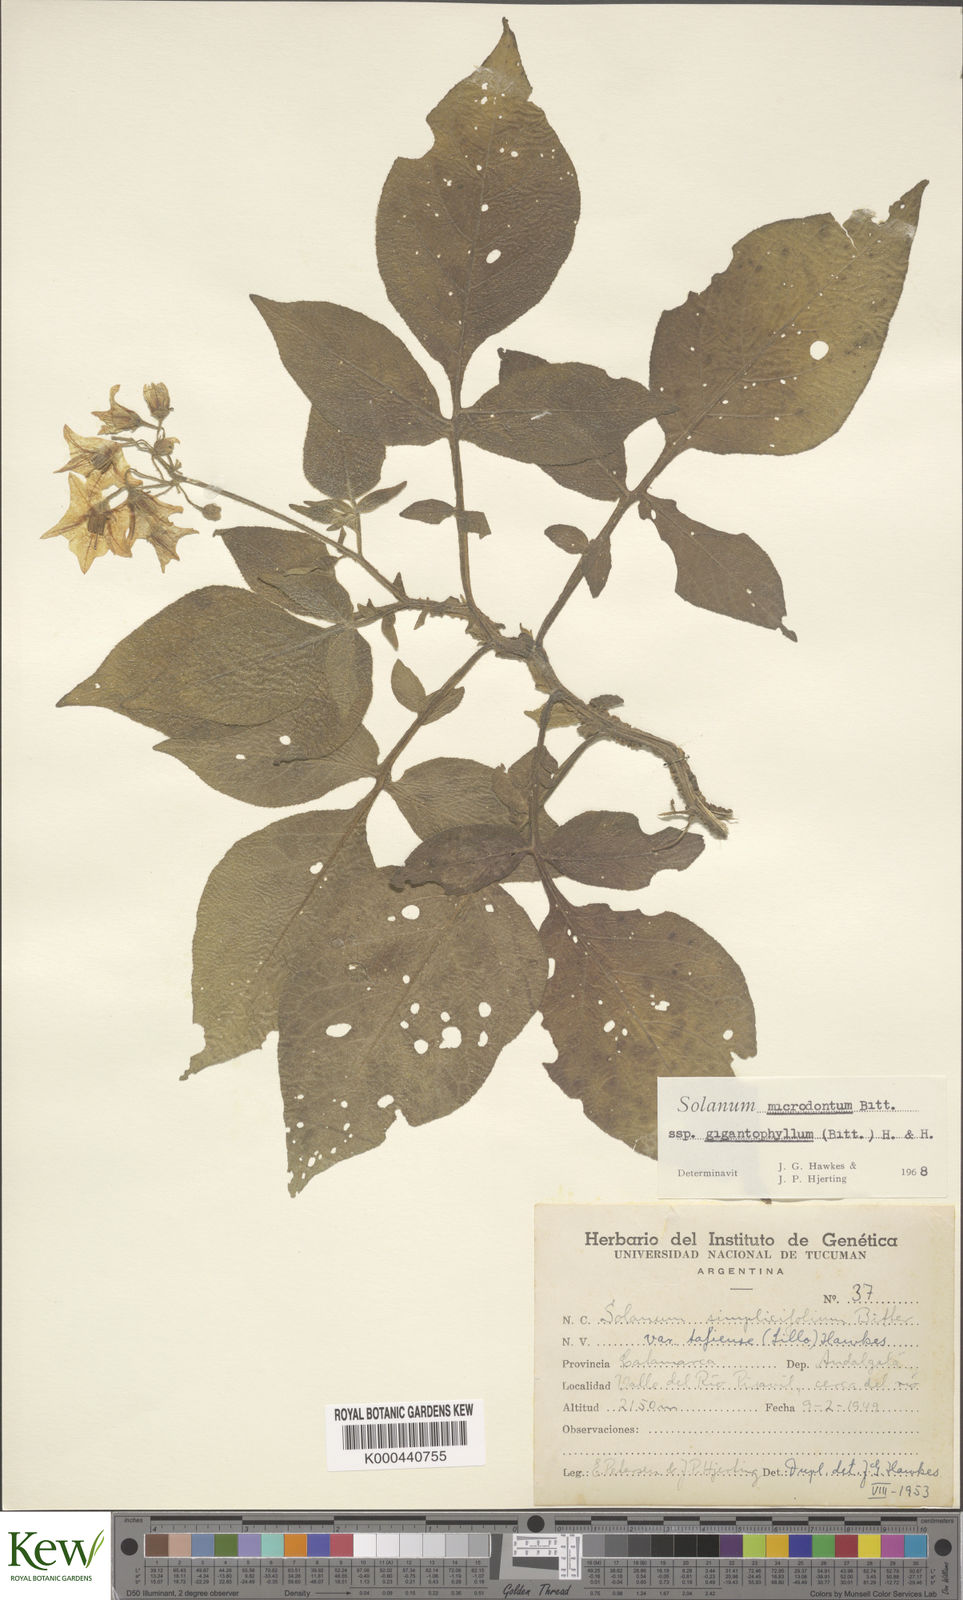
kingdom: Plantae
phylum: Tracheophyta
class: Magnoliopsida
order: Solanales
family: Solanaceae
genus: Solanum
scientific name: Solanum microdontum
